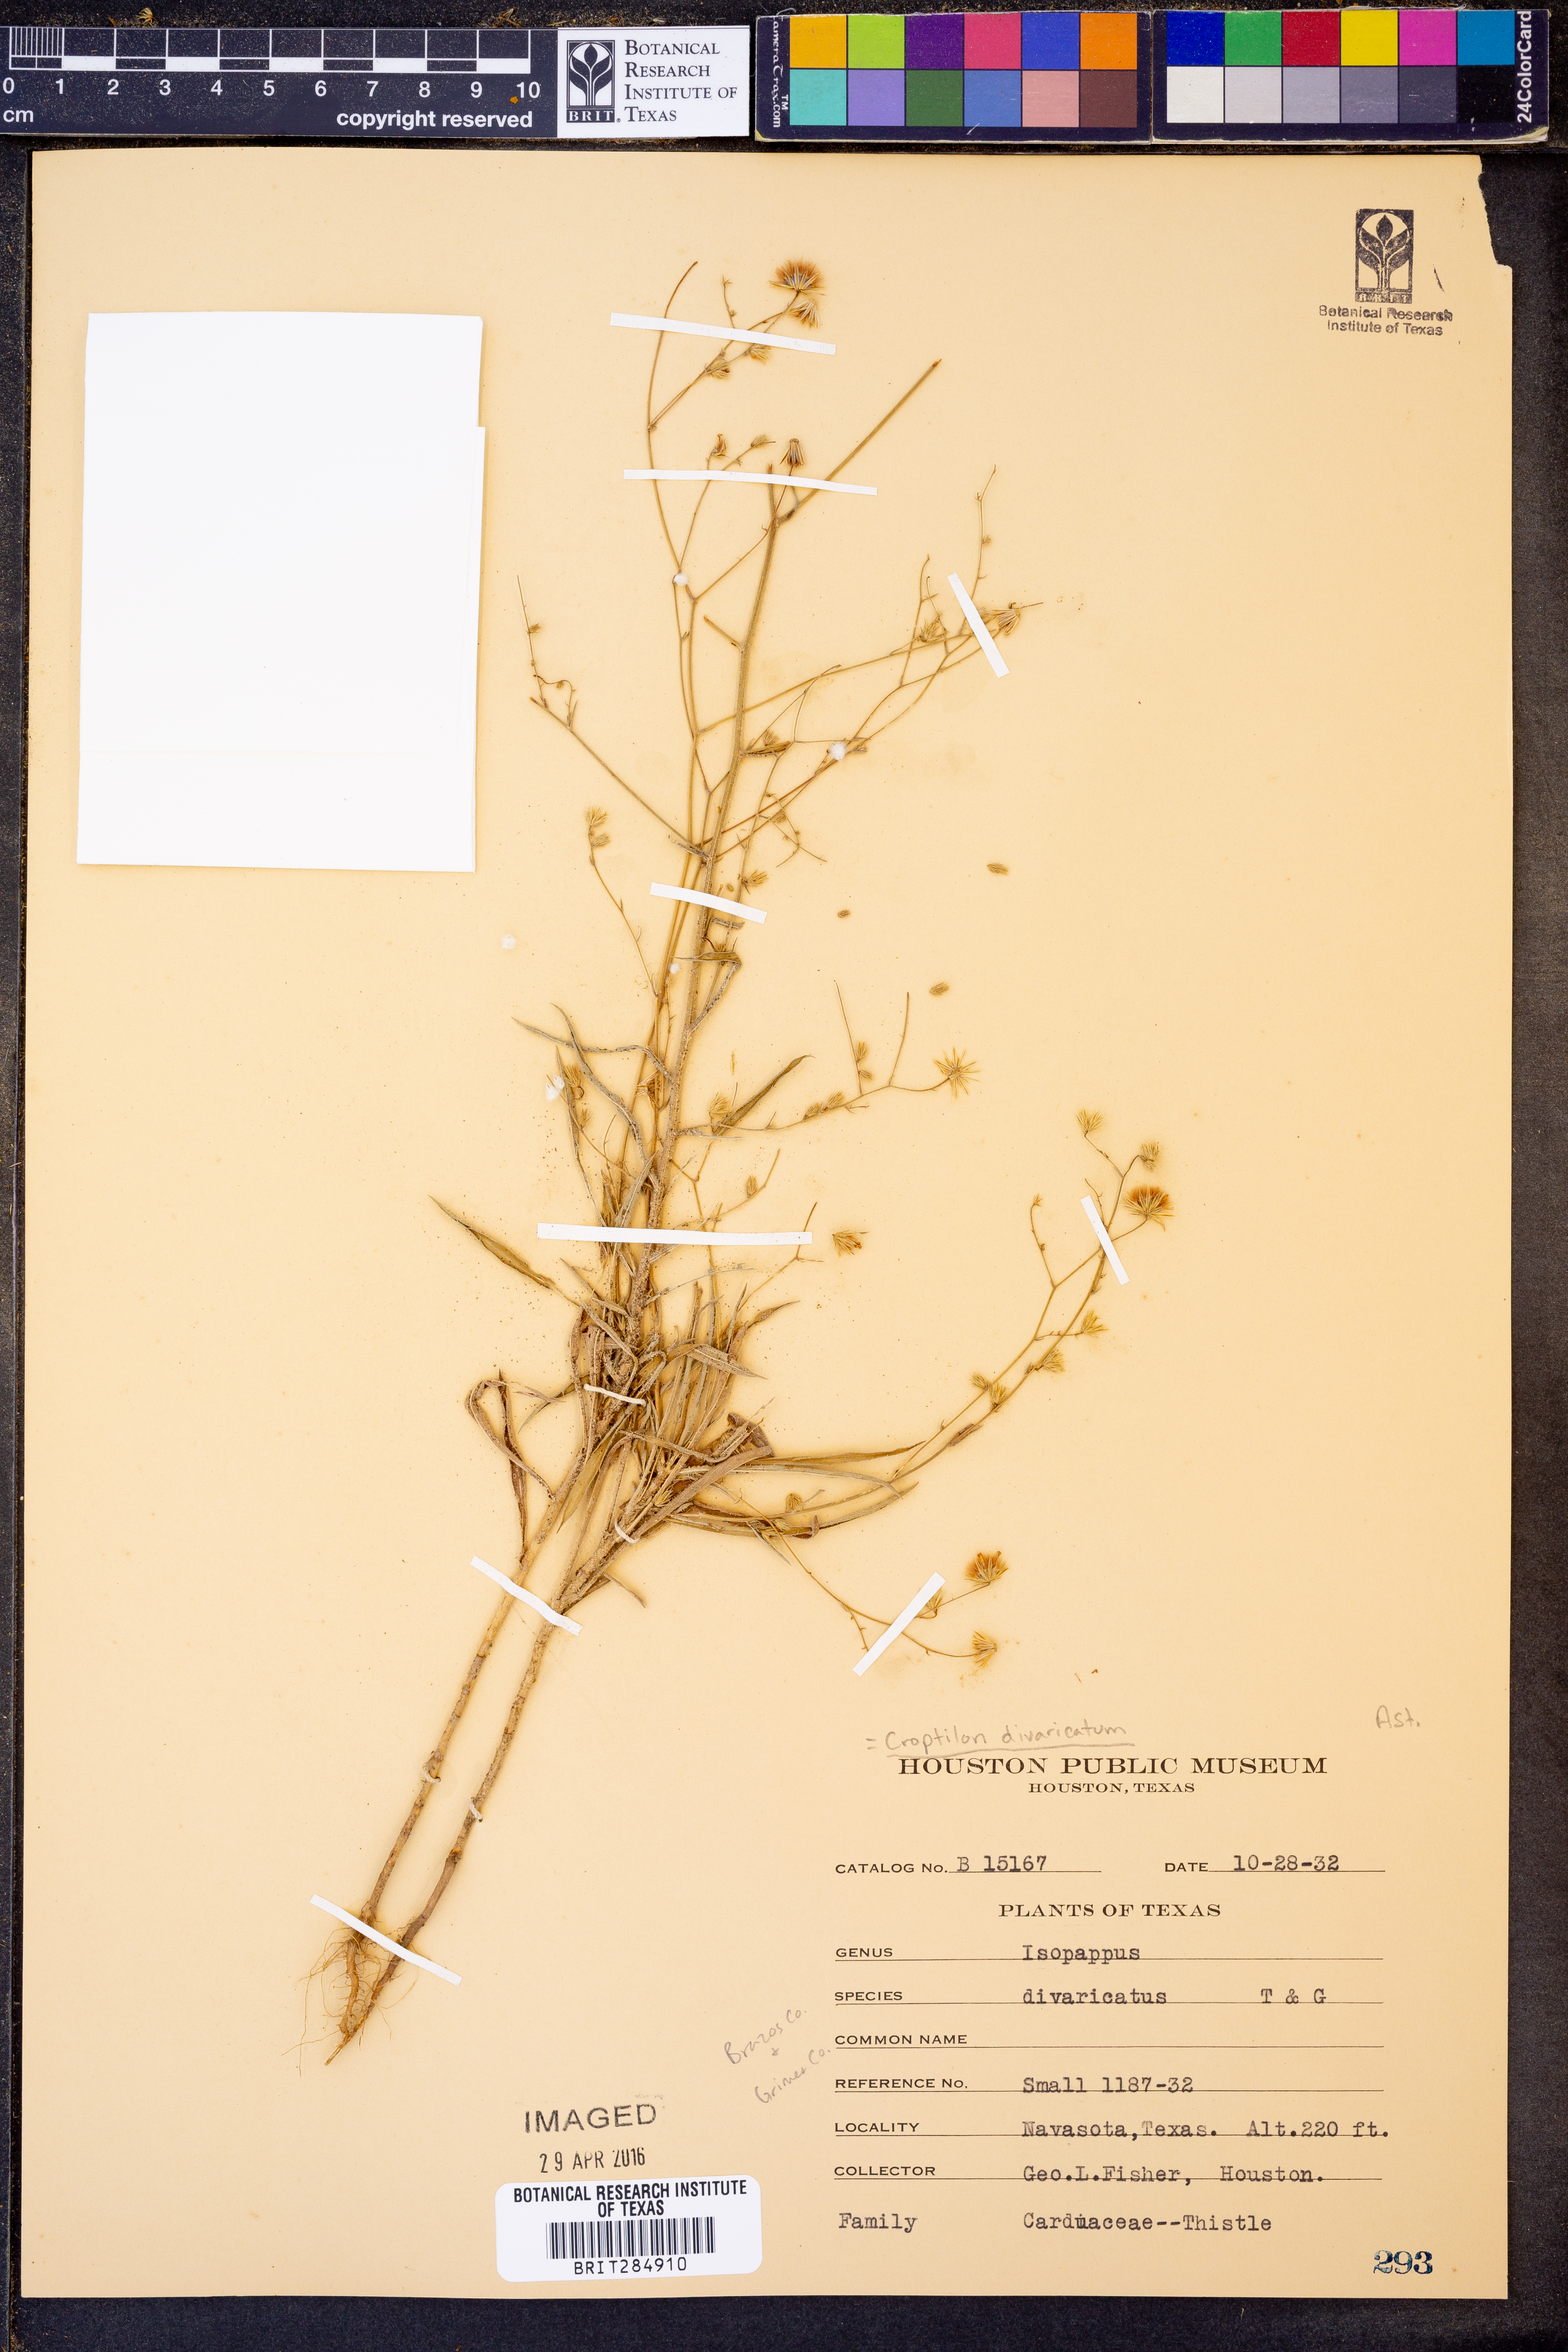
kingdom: Plantae
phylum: Tracheophyta
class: Magnoliopsida
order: Asterales
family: Asteraceae
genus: Croptilon
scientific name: Croptilon divaricatum
